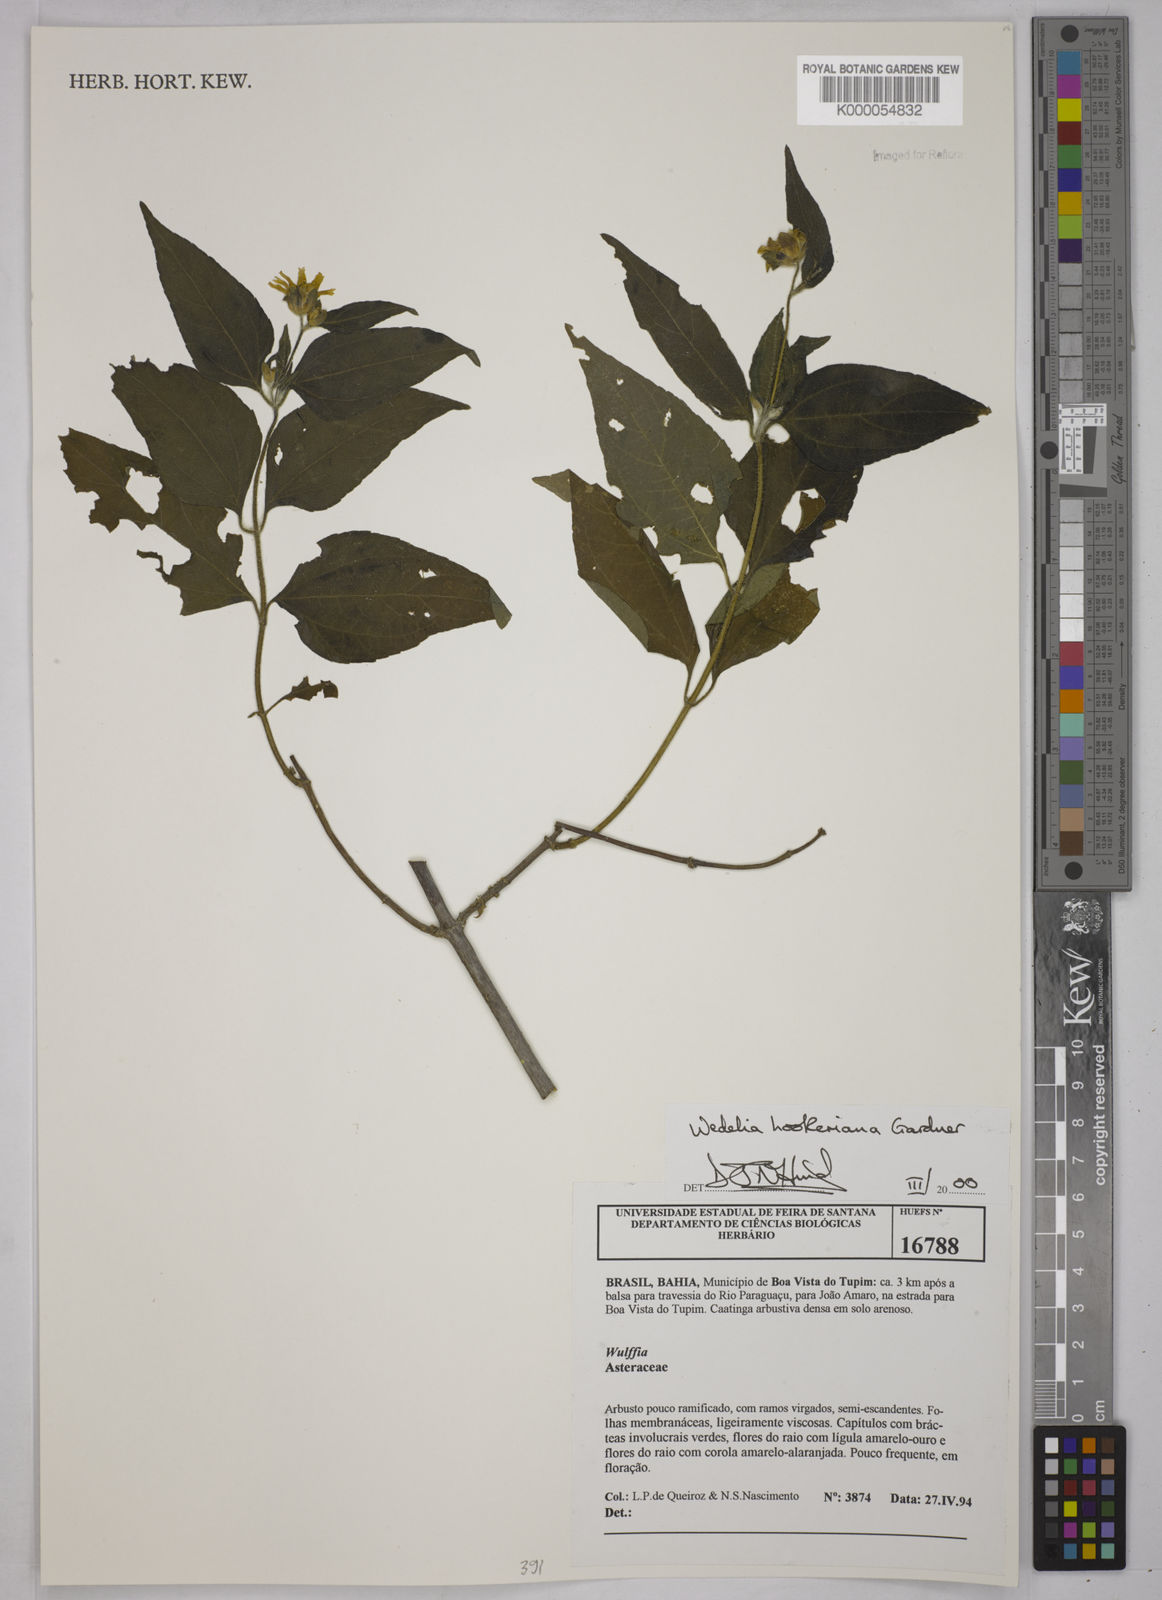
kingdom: Plantae
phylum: Tracheophyta
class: Magnoliopsida
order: Asterales
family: Asteraceae
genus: Wedelia
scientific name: Wedelia hookeriana
